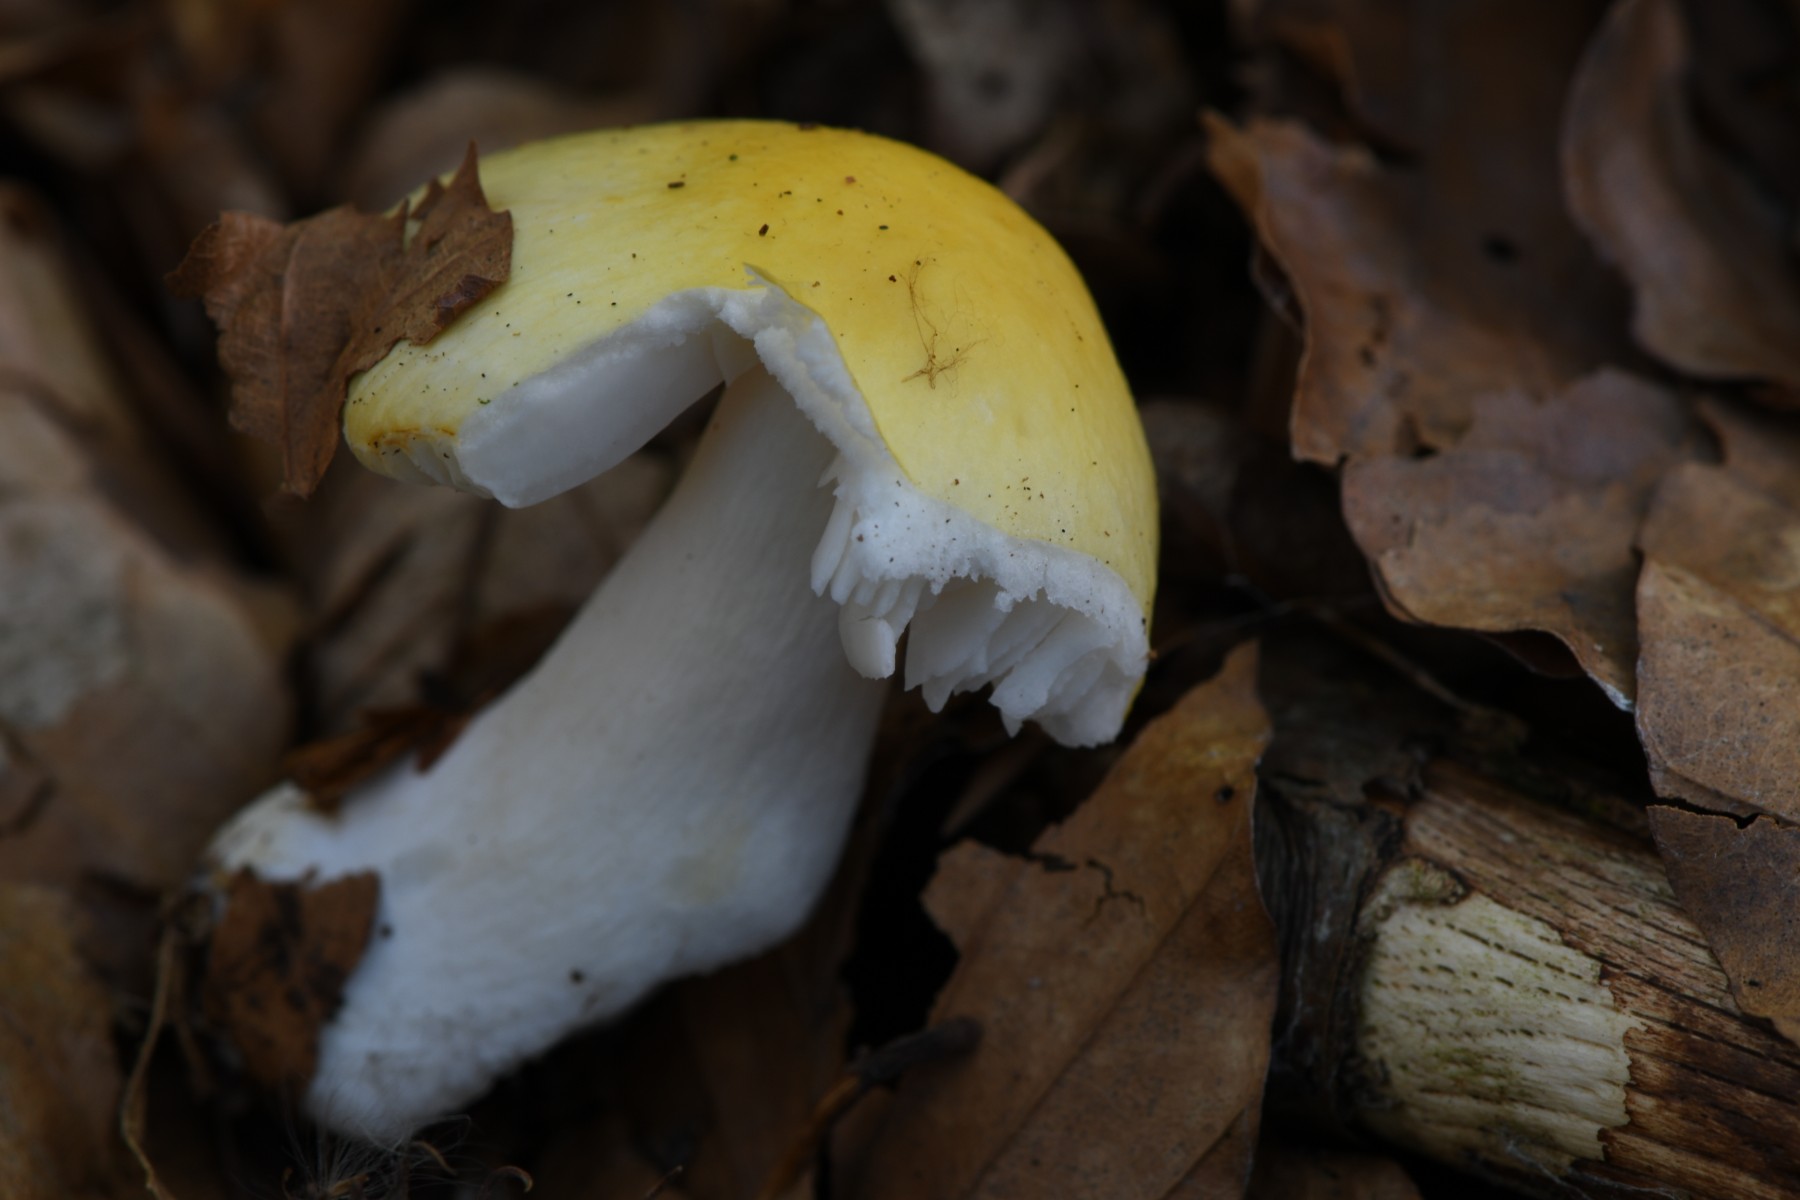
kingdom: Fungi
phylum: Basidiomycota
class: Agaricomycetes
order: Russulales
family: Russulaceae
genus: Russula
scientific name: Russula solaris
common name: sol-skørhat
